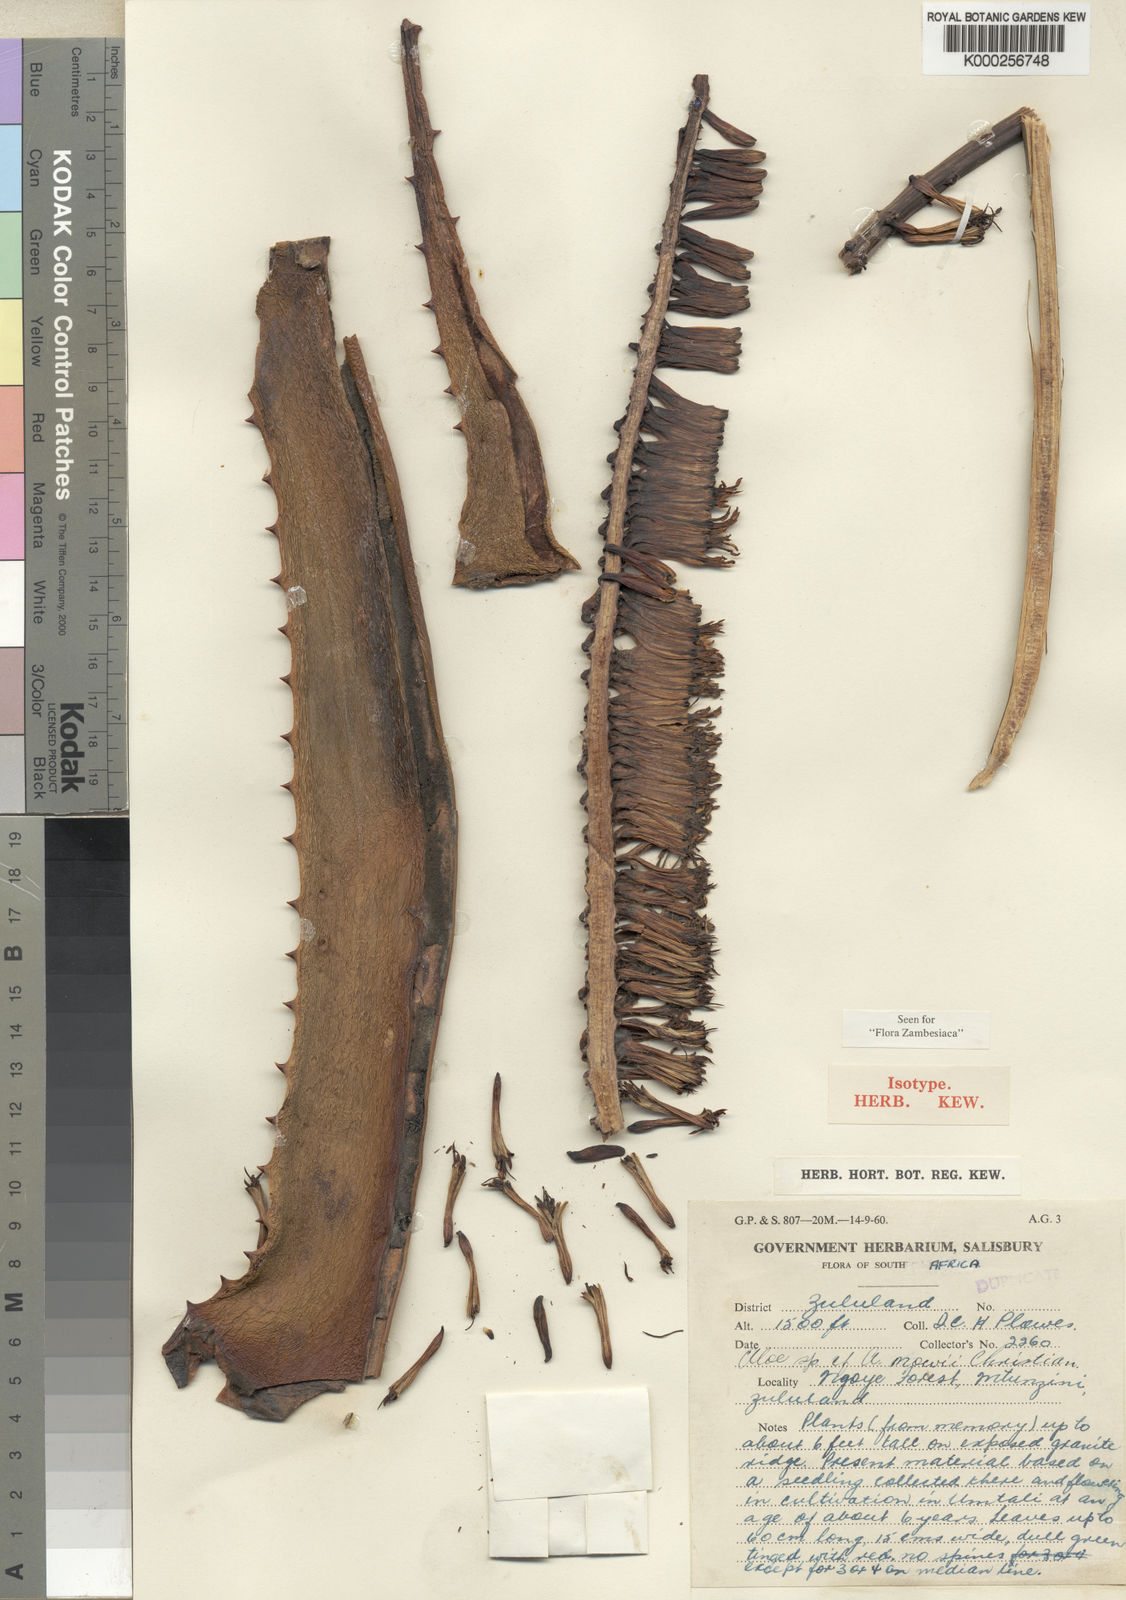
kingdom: Plantae
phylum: Tracheophyta
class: Liliopsida
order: Asparagales
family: Asphodelaceae
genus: Aloe
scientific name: Aloe marlothii
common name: Flat-flowered aloe
